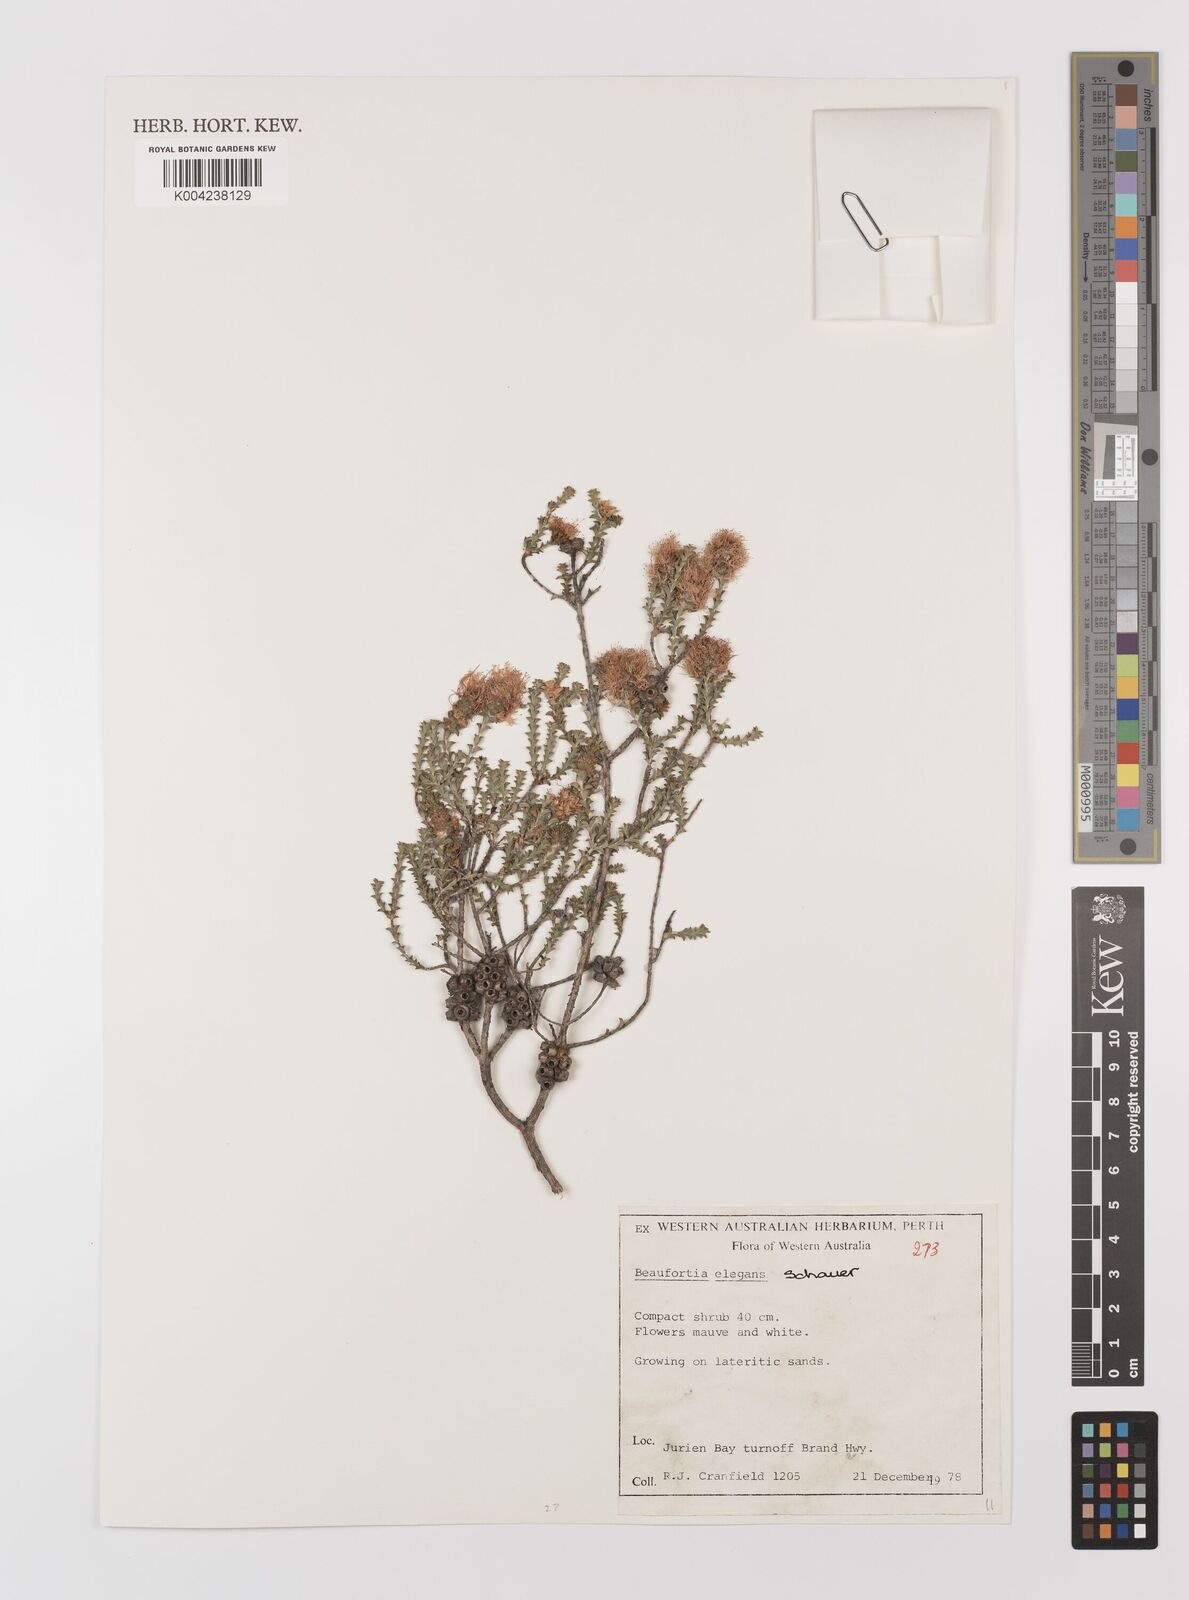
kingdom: Plantae
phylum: Tracheophyta
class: Magnoliopsida
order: Myrtales
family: Myrtaceae
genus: Melaleuca
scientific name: Melaleuca scitula
